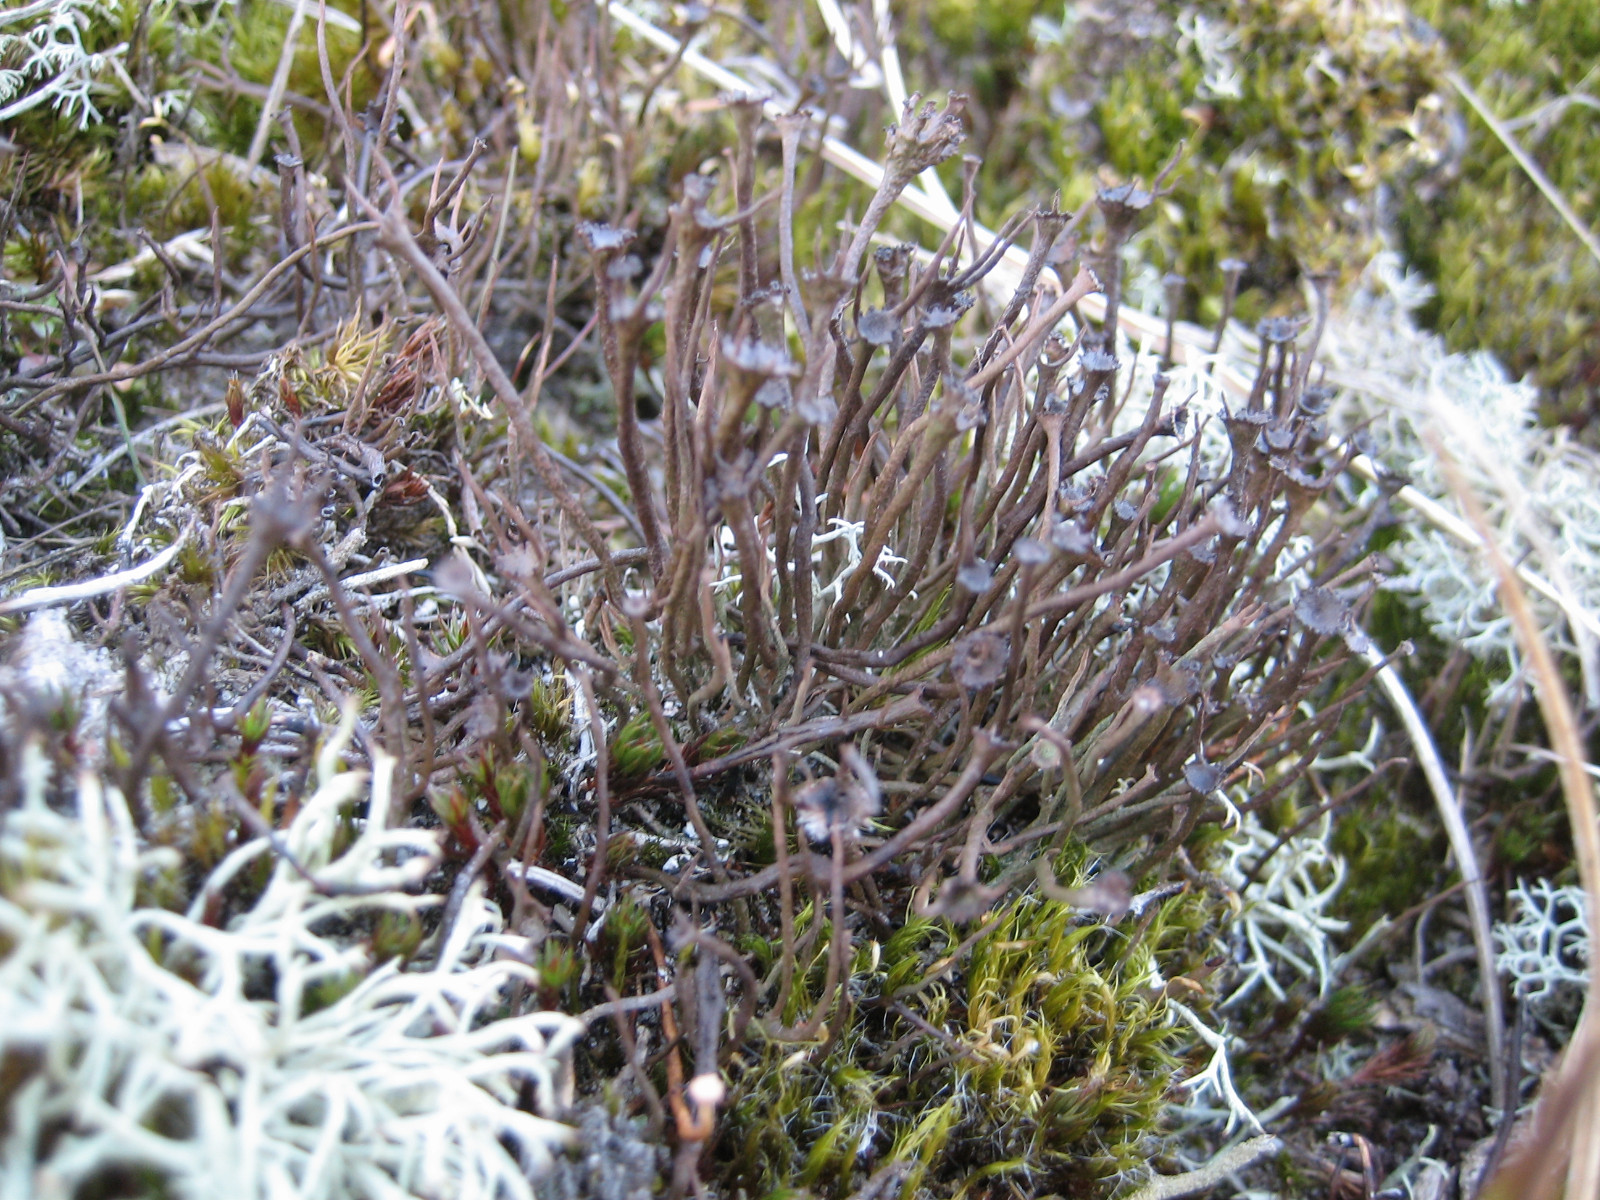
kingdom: Fungi
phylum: Ascomycota
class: Lecanoromycetes
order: Lecanorales
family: Cladoniaceae
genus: Cladonia
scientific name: Cladonia gracilis
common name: slank bægerlav
